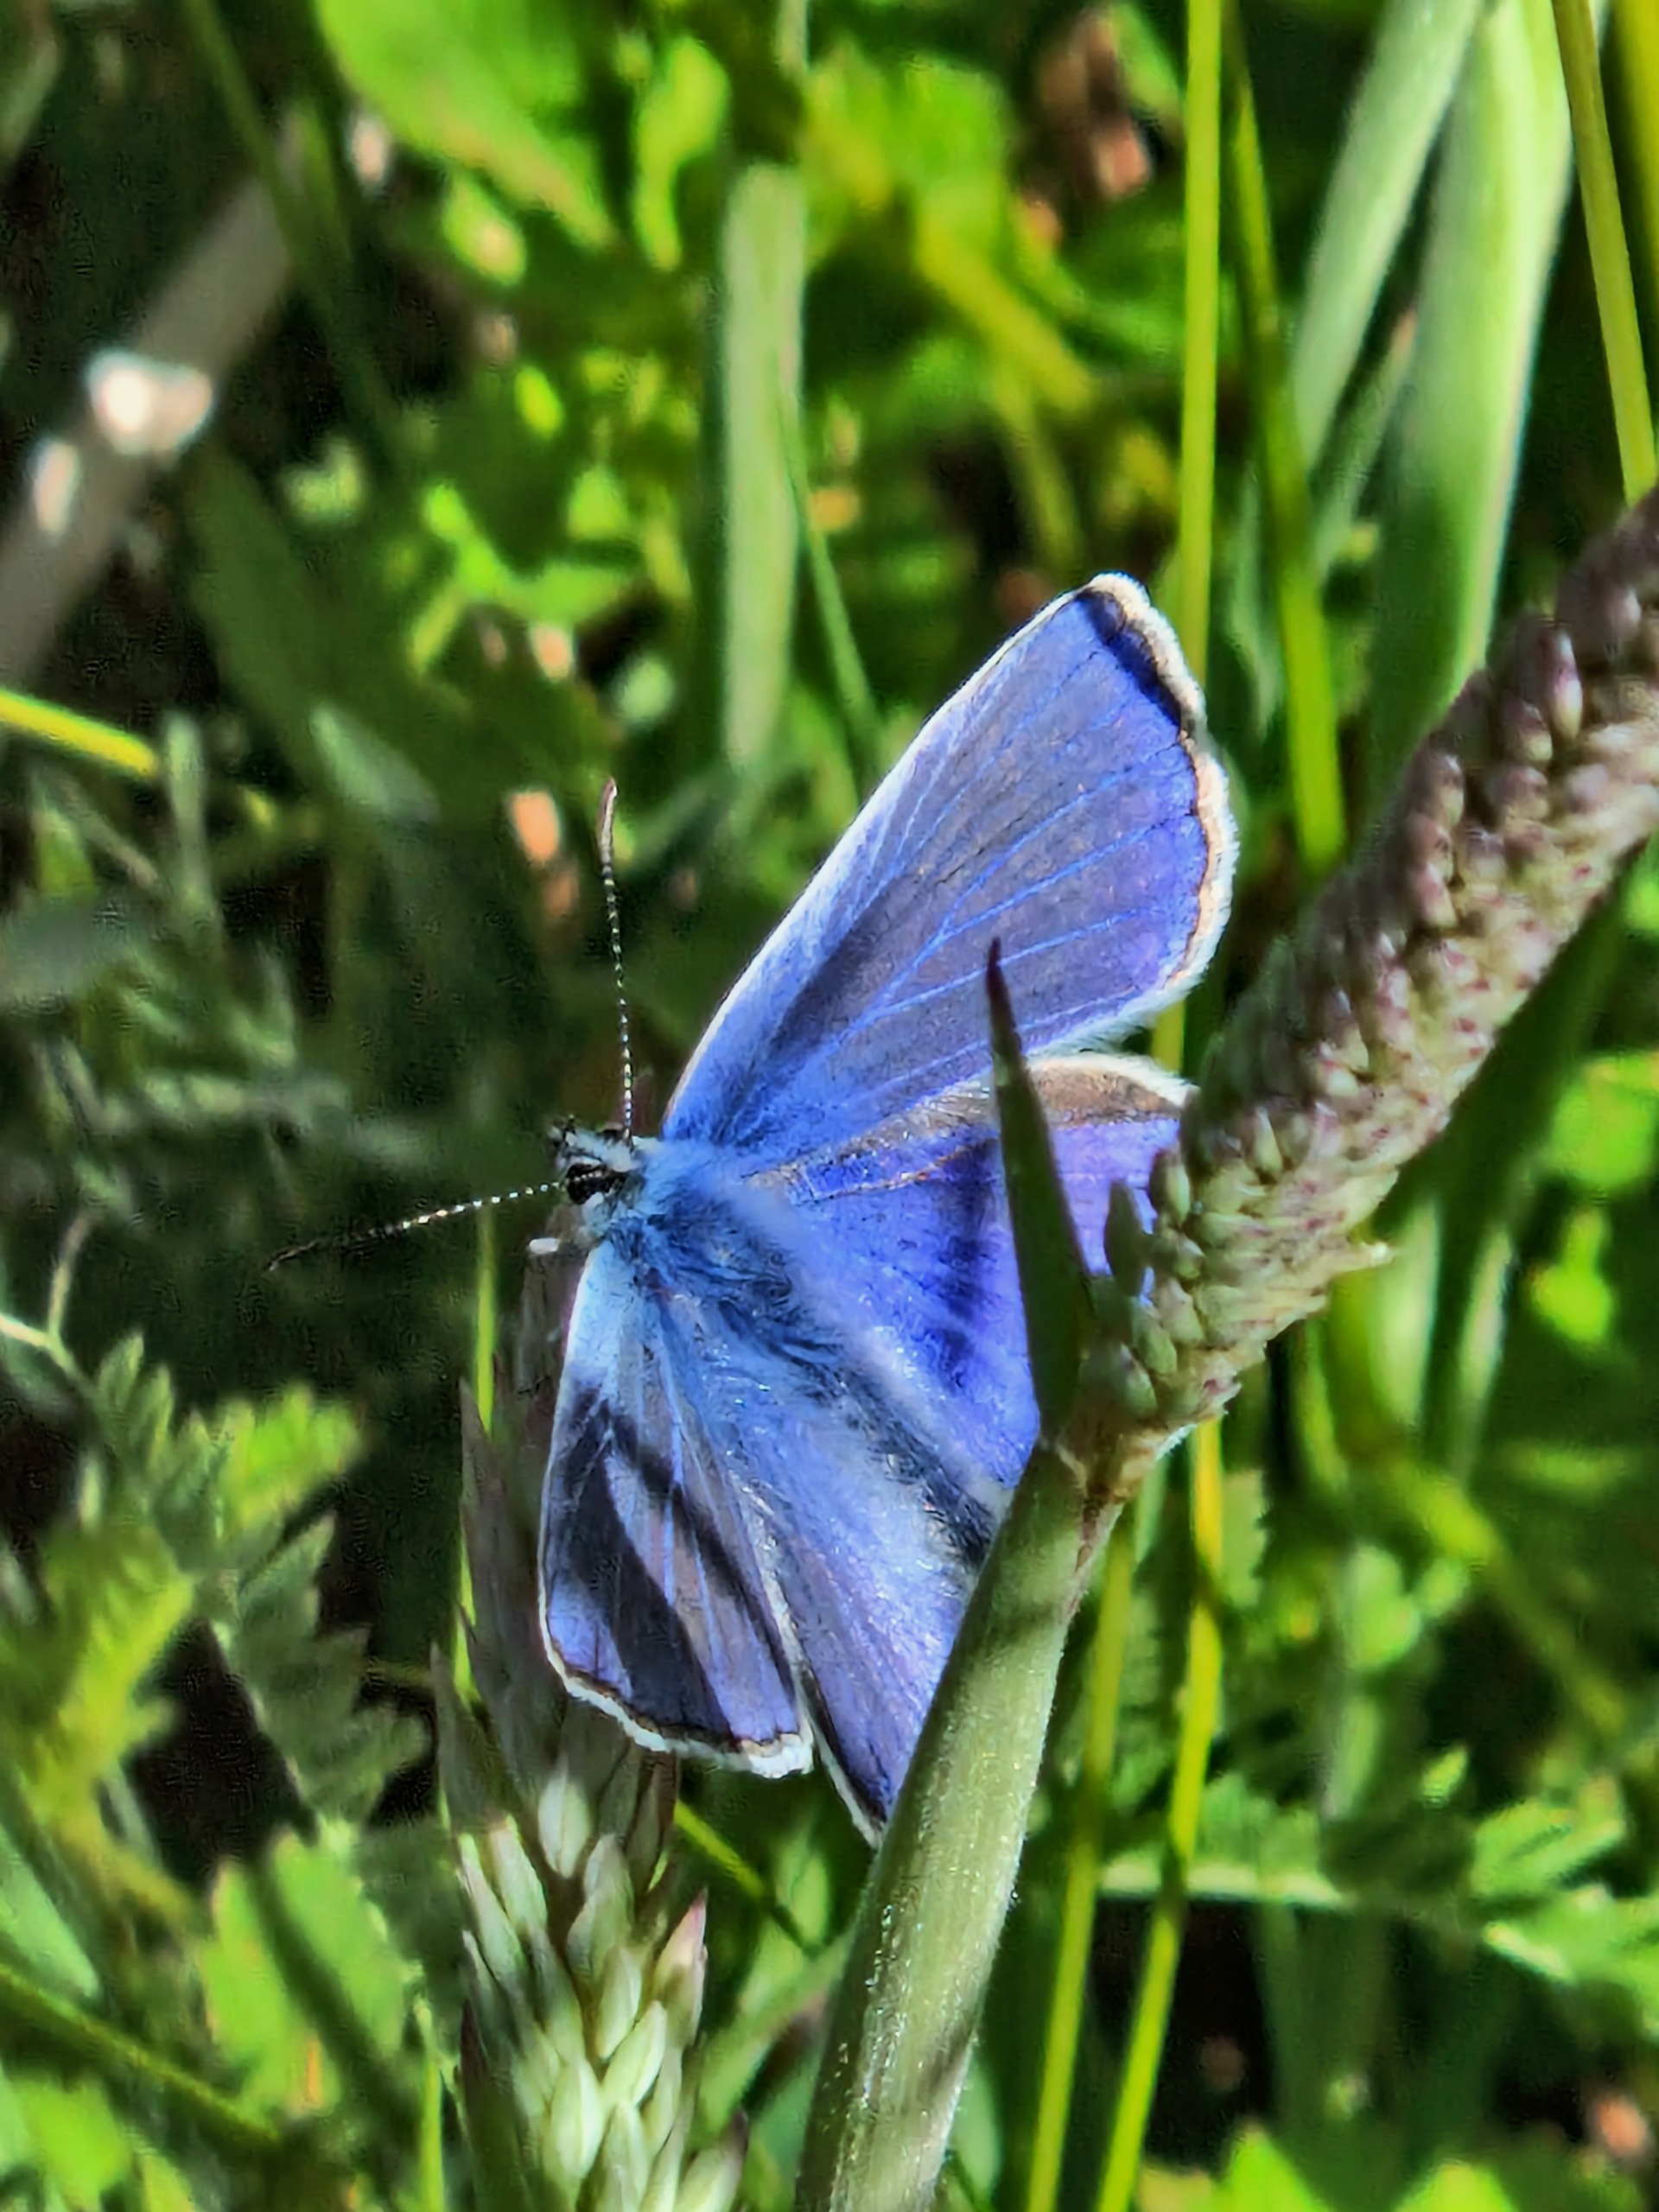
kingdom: Animalia
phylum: Arthropoda
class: Insecta
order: Lepidoptera
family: Lycaenidae
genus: Polyommatus
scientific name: Polyommatus icarus
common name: Almindelig blåfugl
